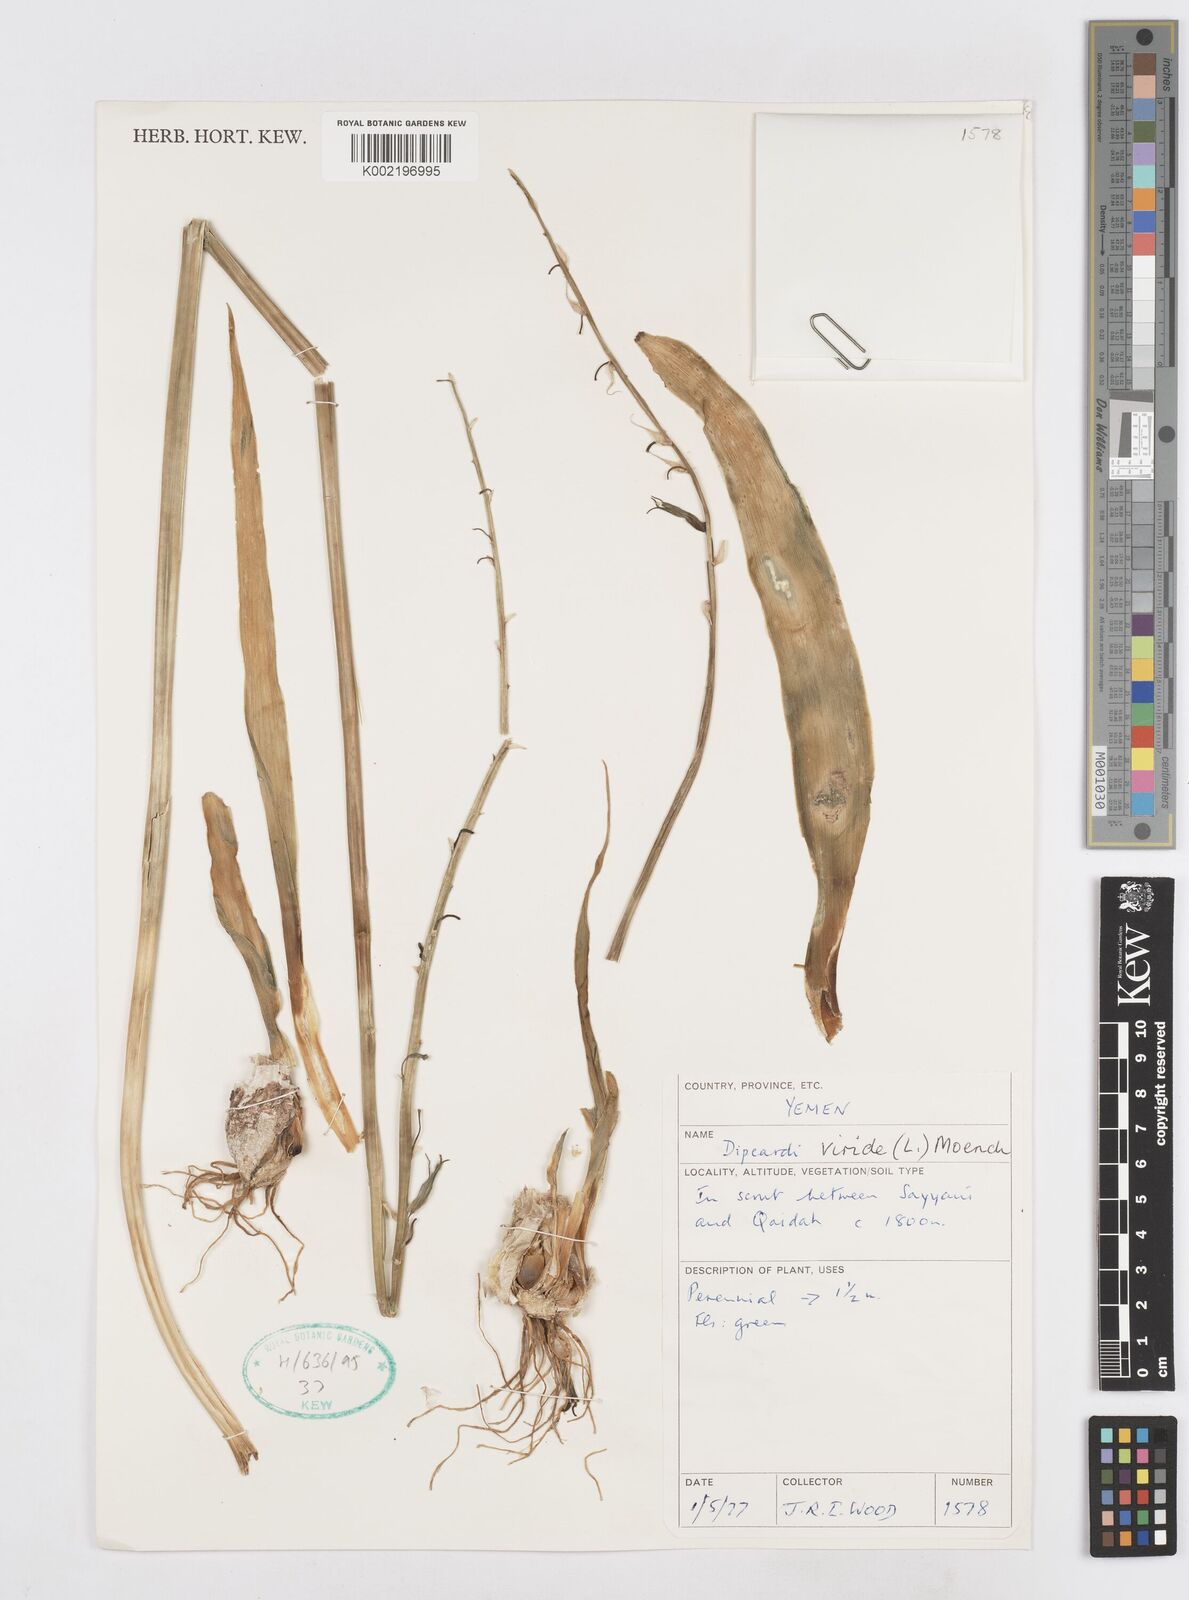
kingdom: Plantae
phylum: Tracheophyta
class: Liliopsida
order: Asparagales
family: Asparagaceae
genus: Dipcadi
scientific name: Dipcadi viride
